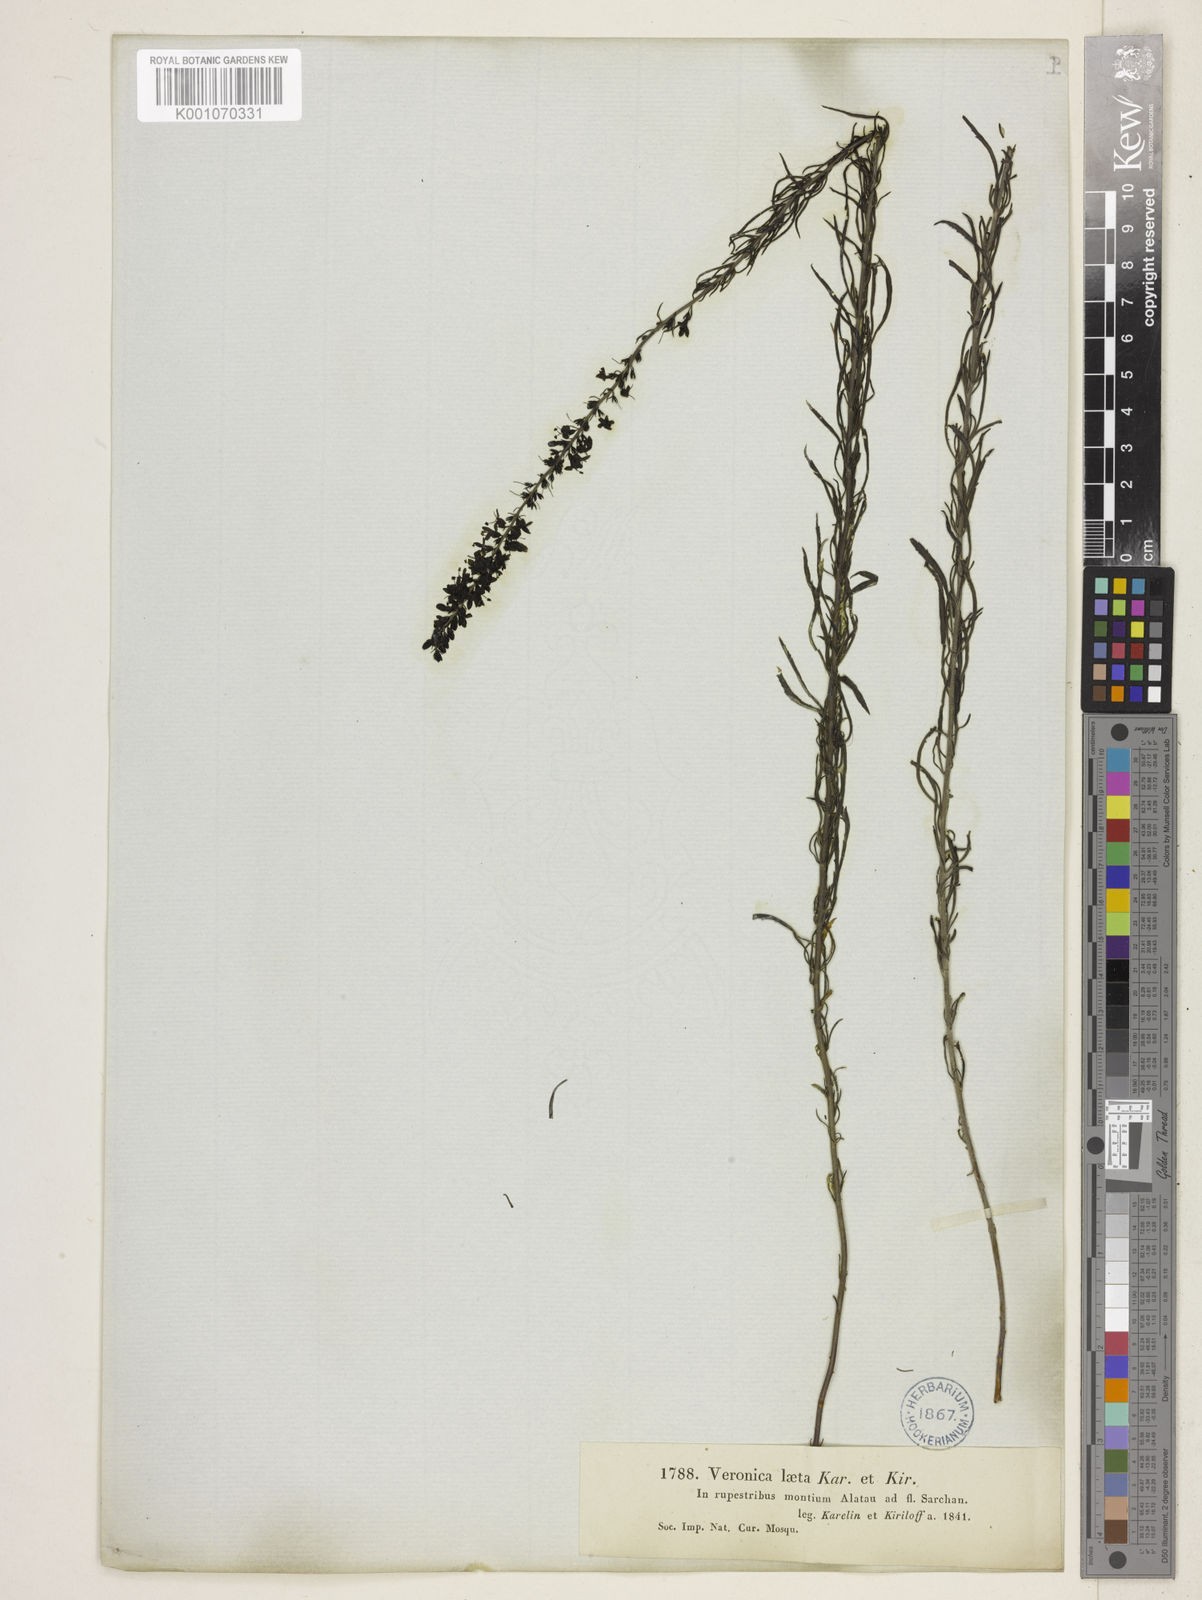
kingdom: Plantae
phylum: Tracheophyta
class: Magnoliopsida
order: Lamiales
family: Plantaginaceae
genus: Veronica
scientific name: Veronica laeta
